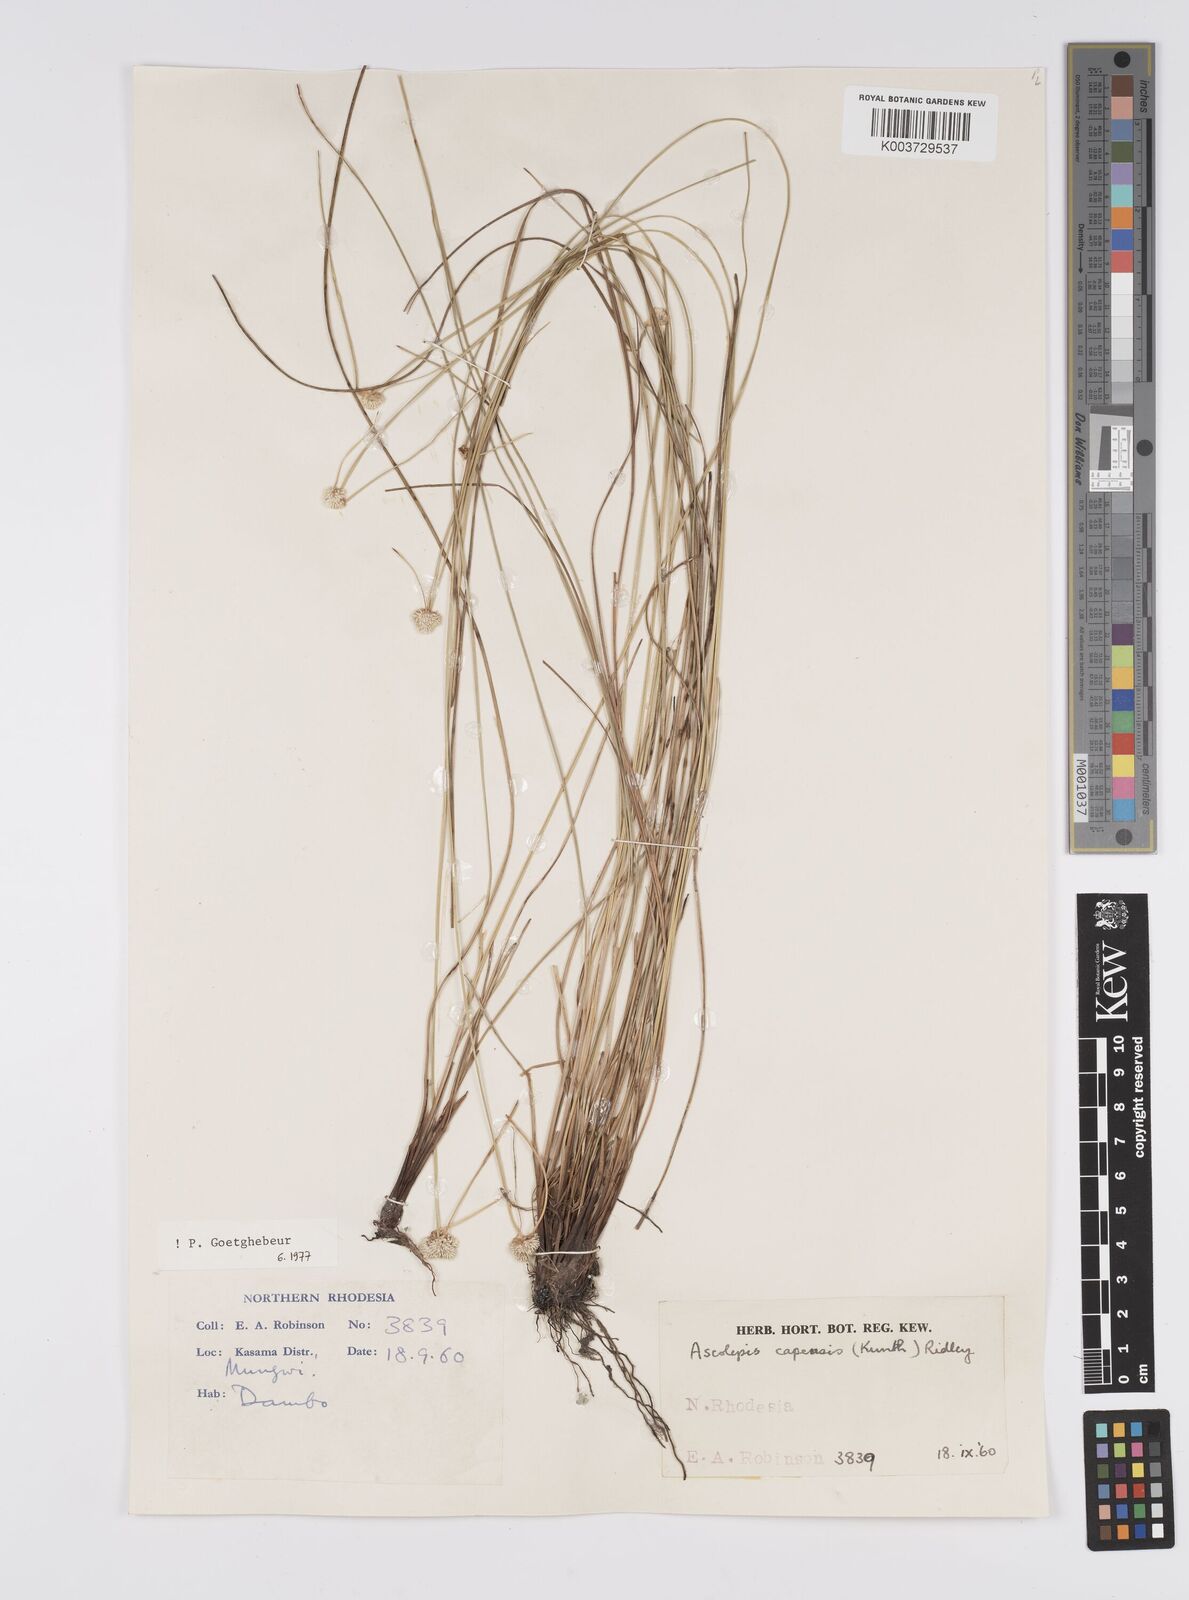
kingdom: Plantae
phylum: Tracheophyta
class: Liliopsida
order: Poales
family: Cyperaceae
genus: Cyperus
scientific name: Cyperus
